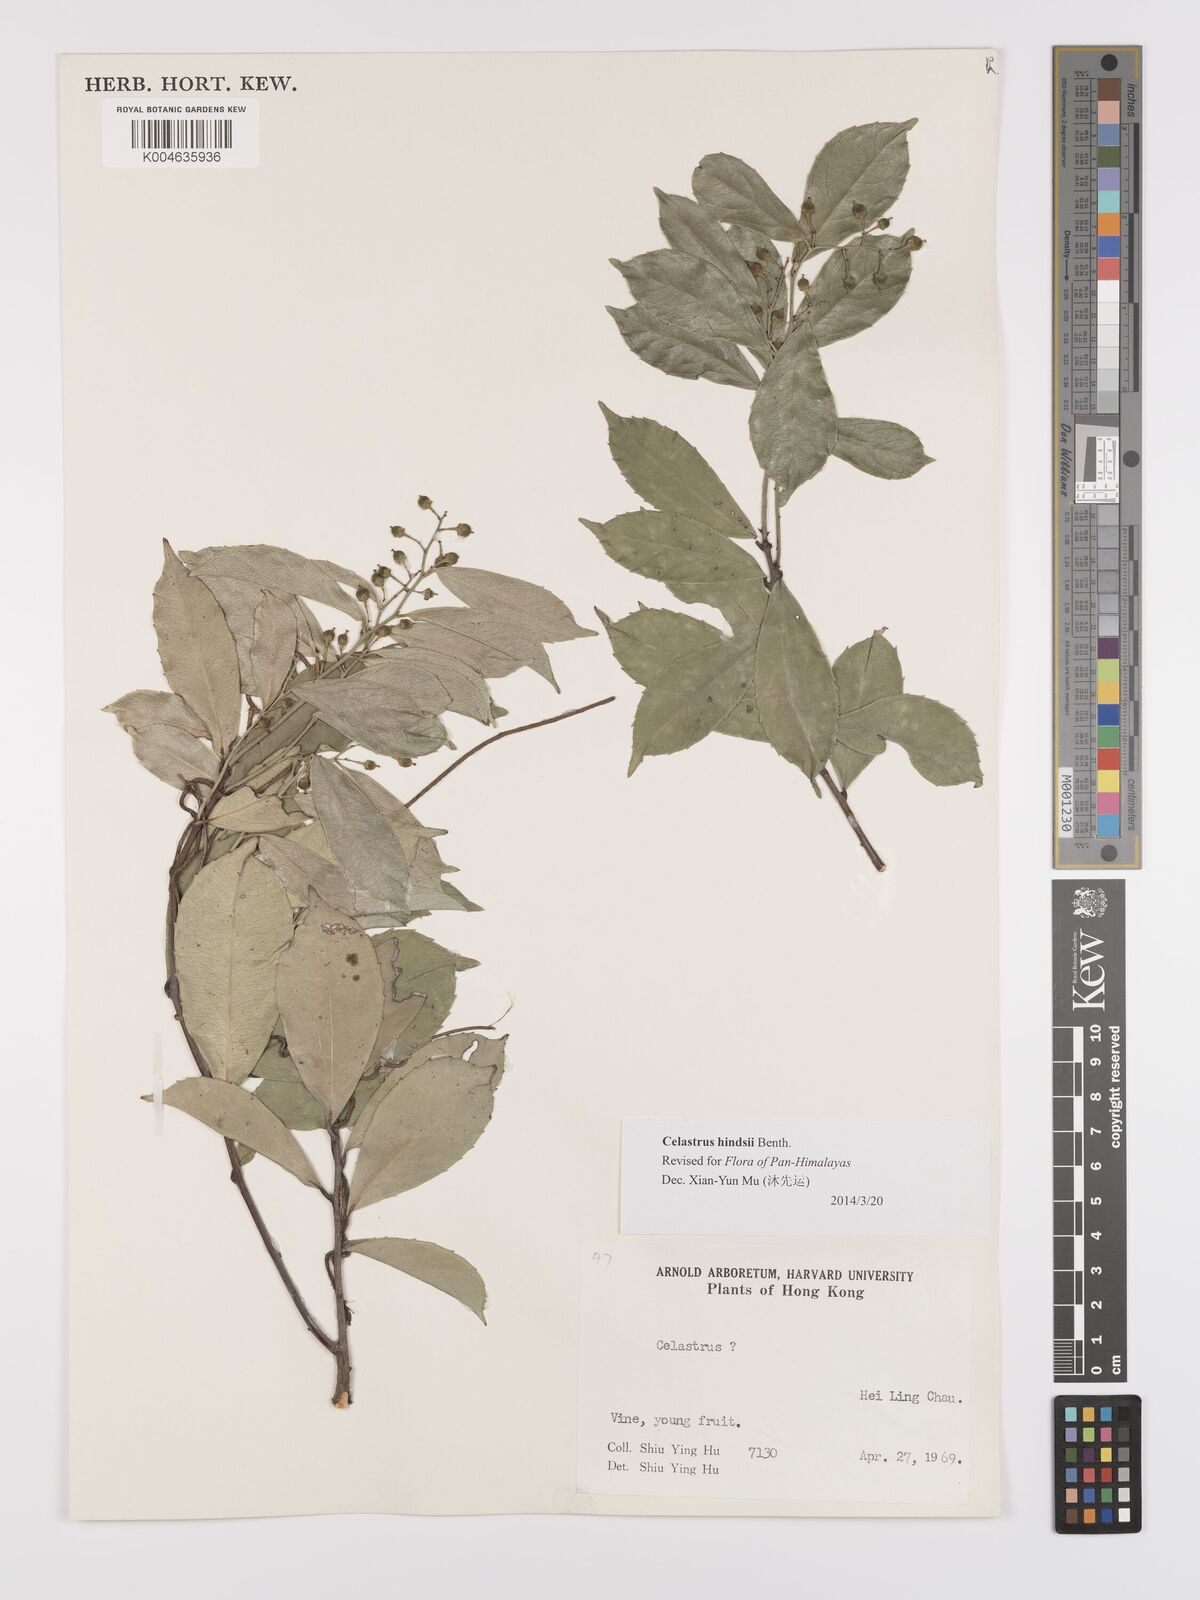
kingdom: Plantae
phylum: Tracheophyta
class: Magnoliopsida
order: Celastrales
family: Celastraceae
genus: Celastrus
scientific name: Celastrus hindsii
